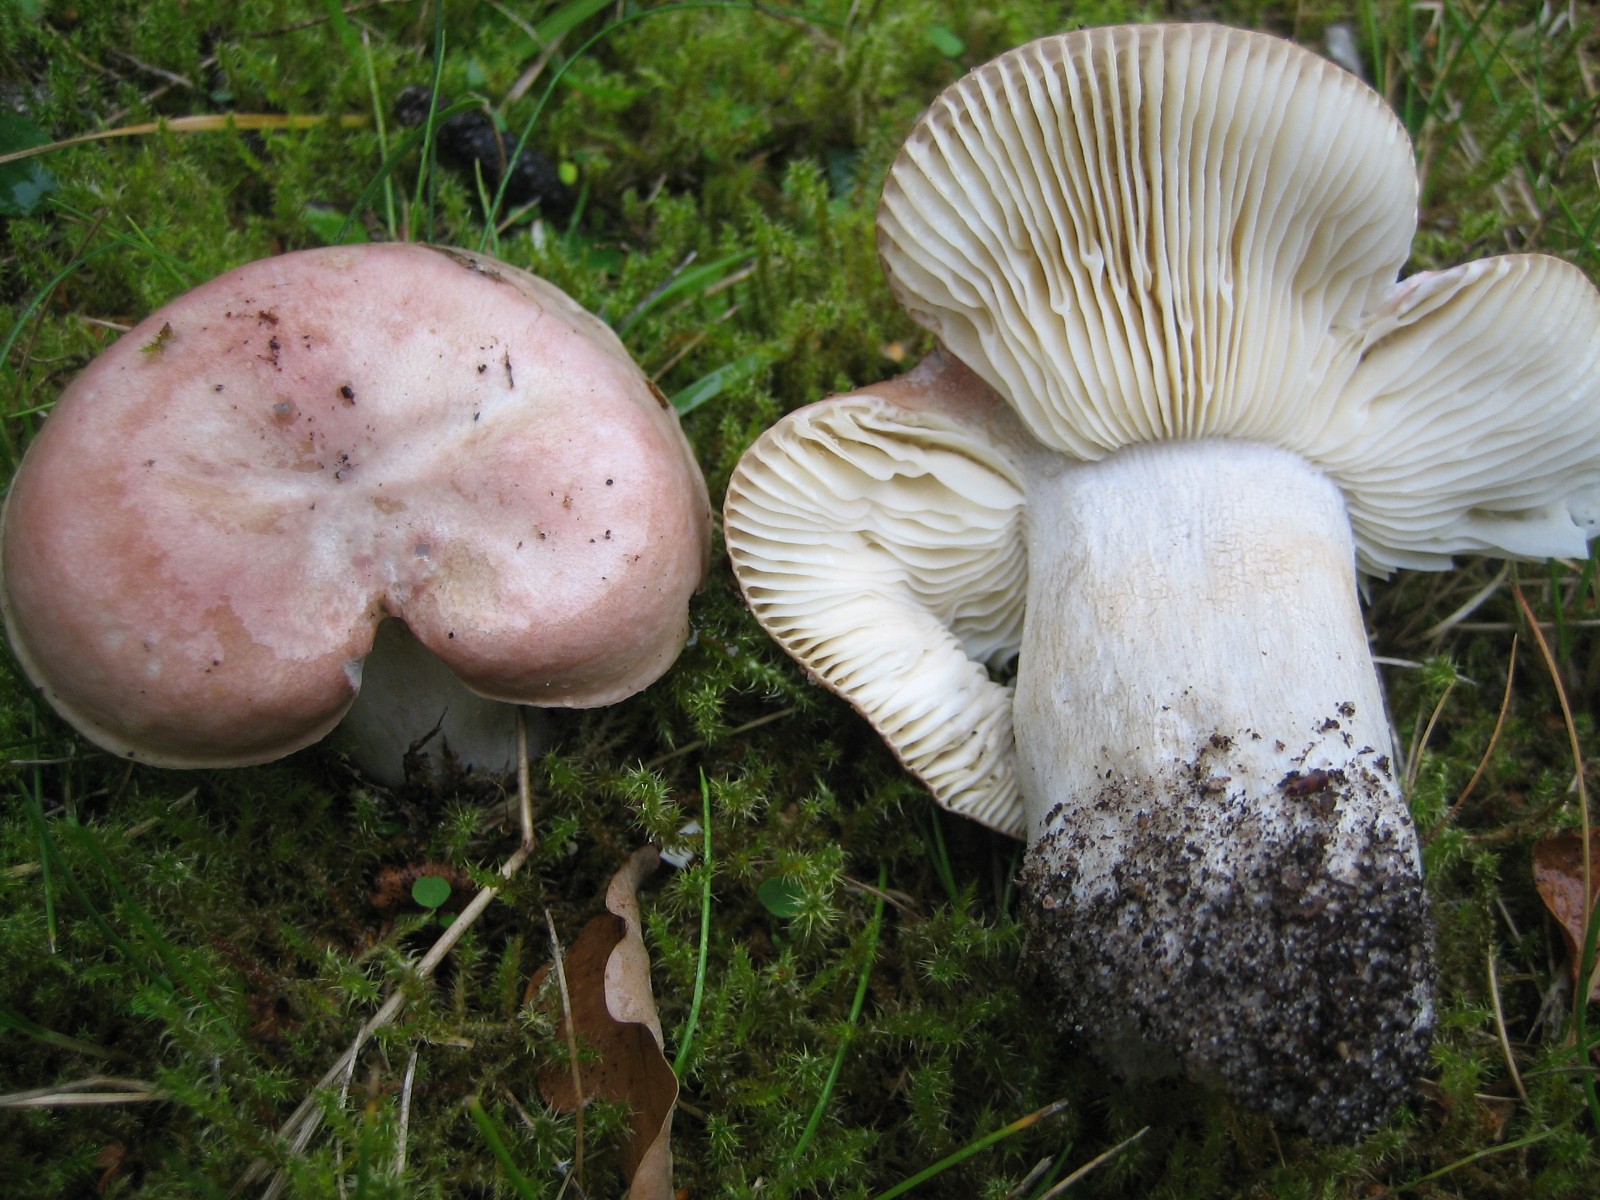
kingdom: Fungi
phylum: Basidiomycota
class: Agaricomycetes
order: Russulales
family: Russulaceae
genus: Russula
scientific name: Russula depallens
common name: falmende skørhat
